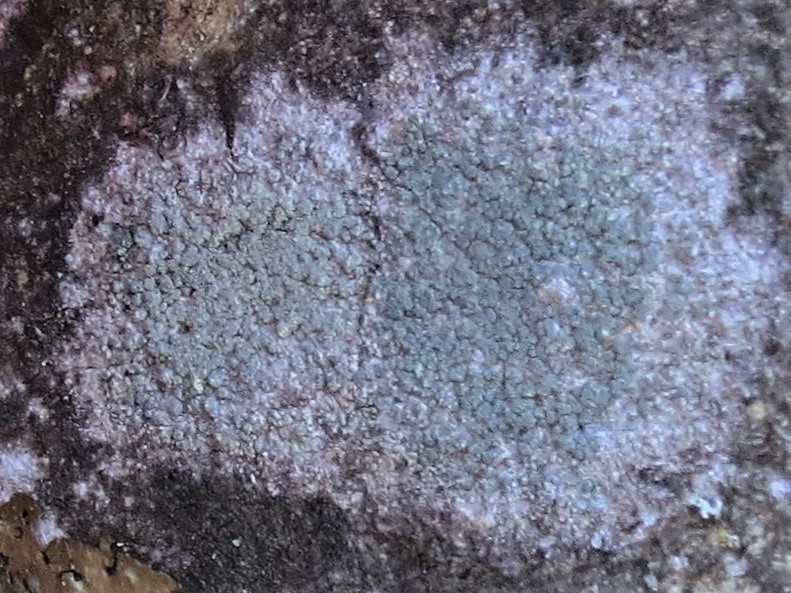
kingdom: Fungi
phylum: Ascomycota
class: Lecanoromycetes
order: Caliciales
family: Caliciaceae
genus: Buellia
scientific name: Buellia griseovirens
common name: grågrøn sortskivelav
